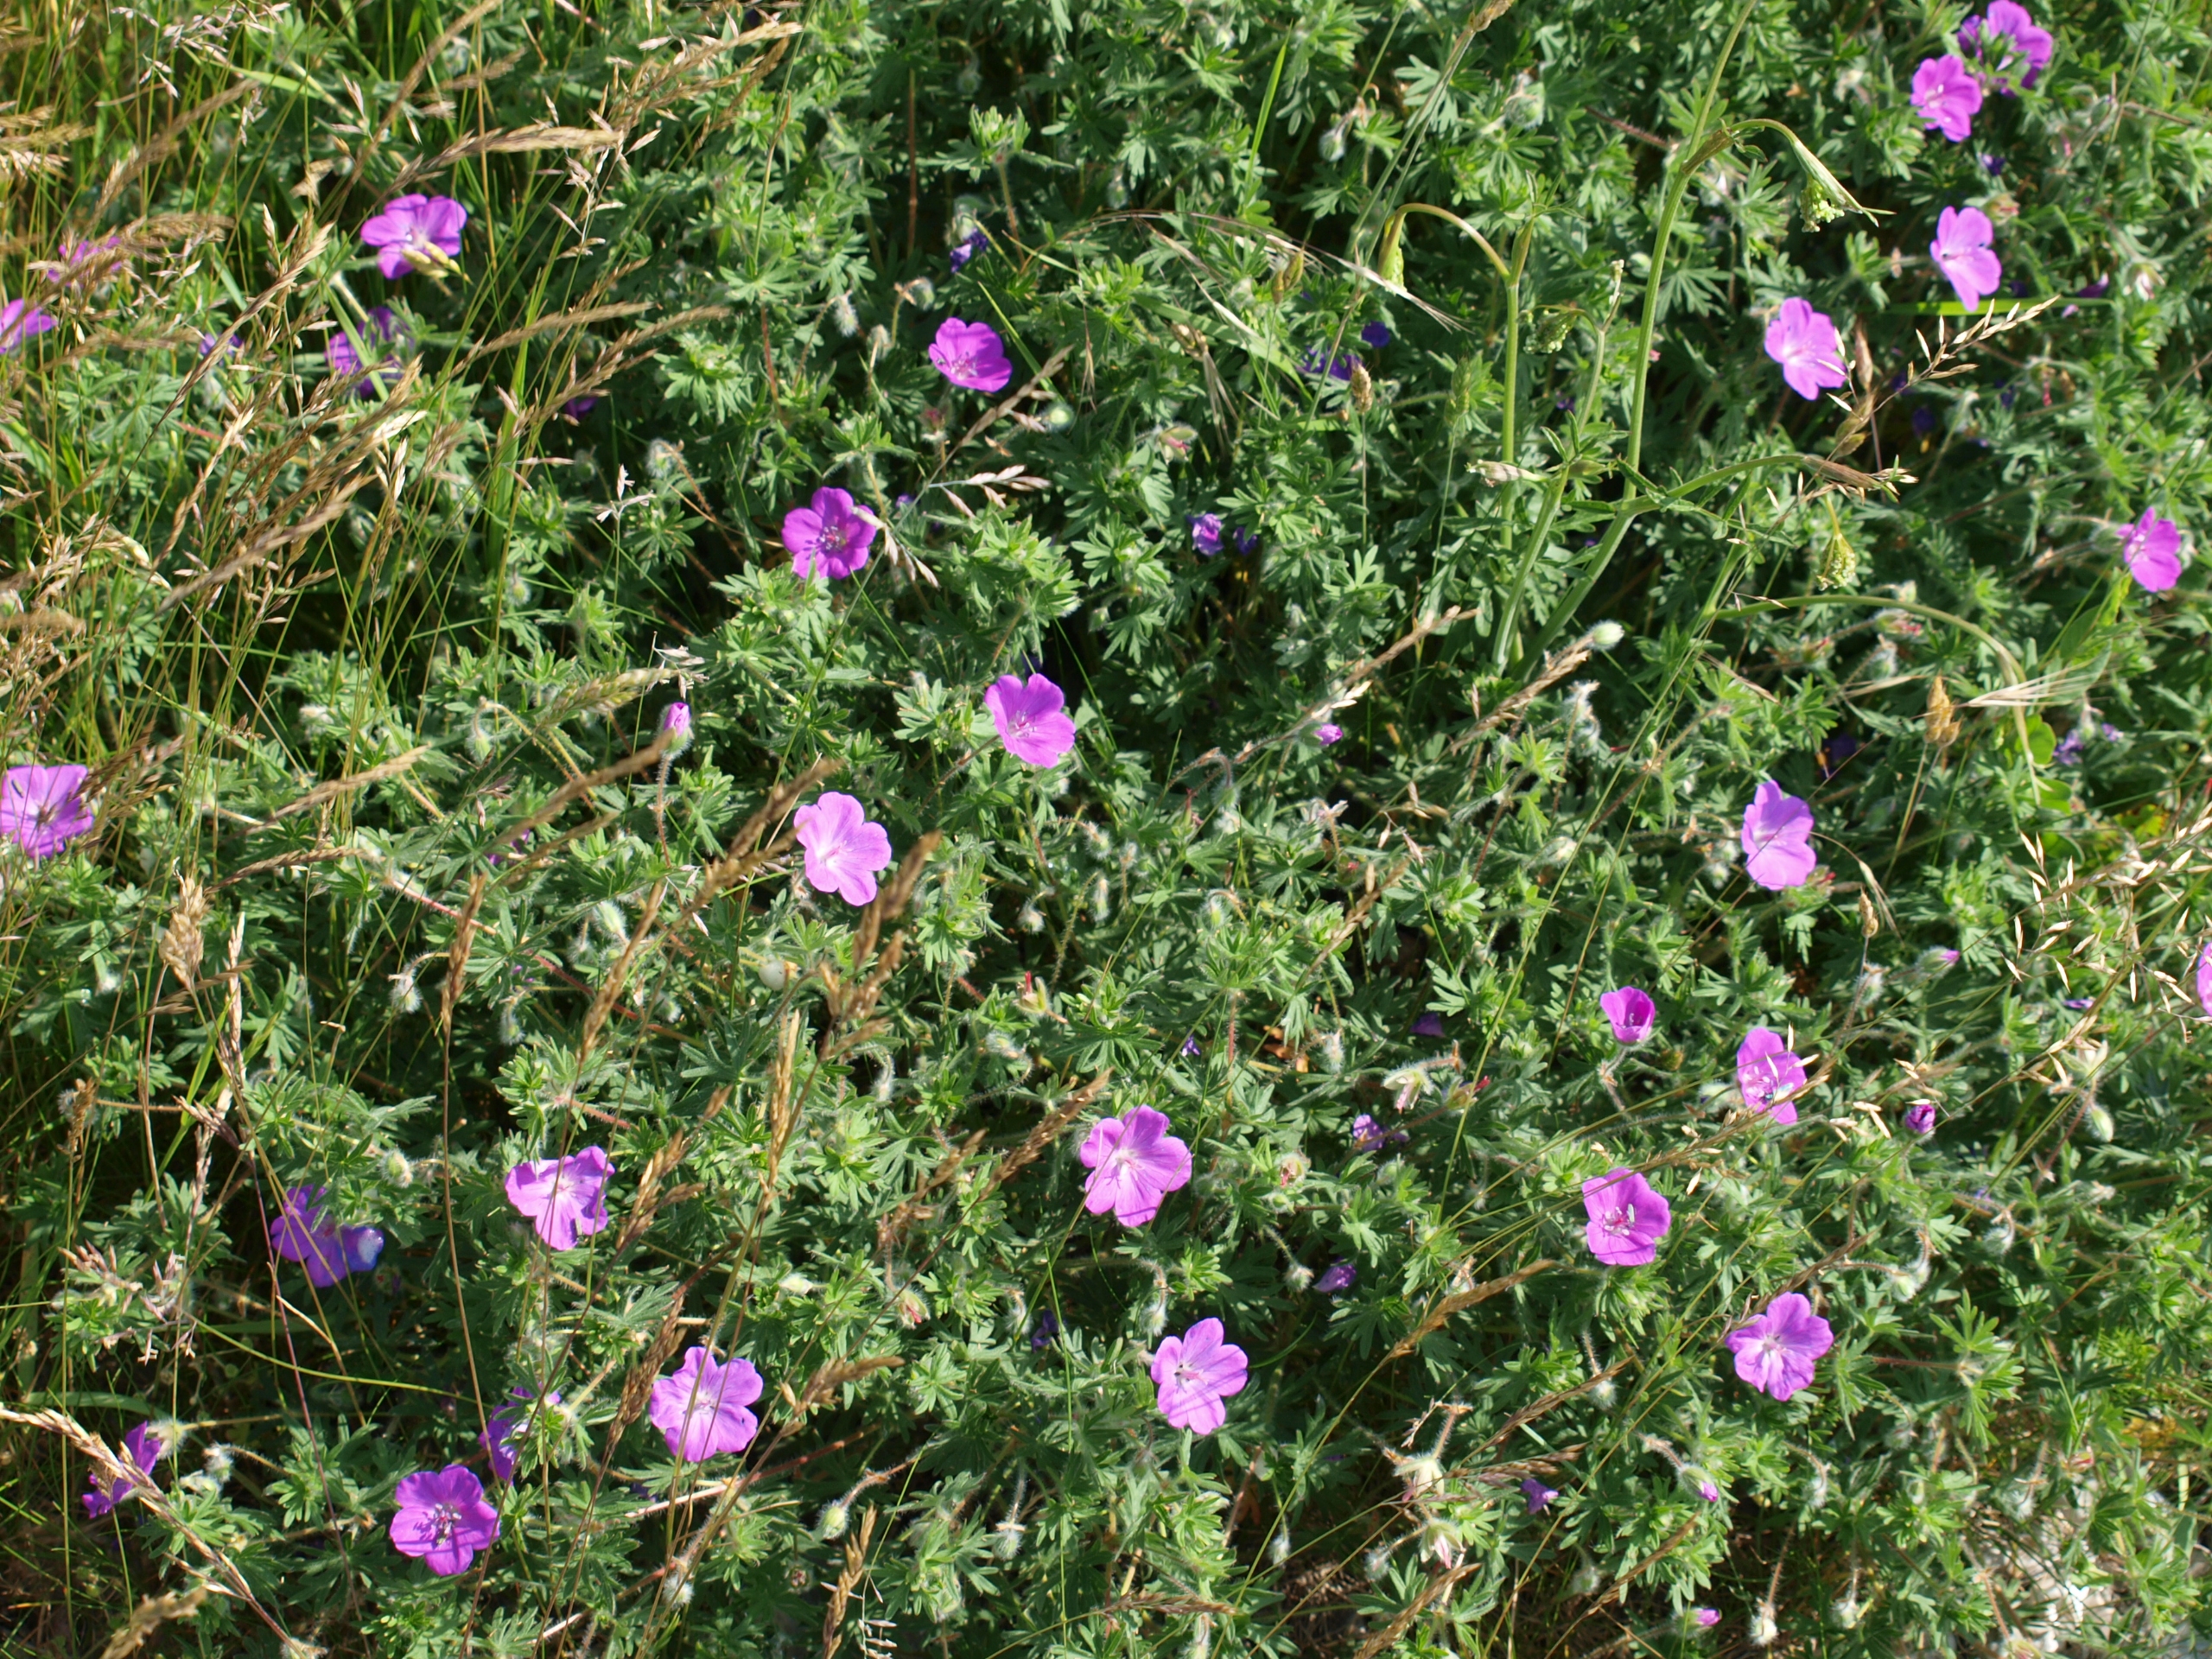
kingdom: Plantae
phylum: Tracheophyta
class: Magnoliopsida
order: Geraniales
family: Geraniaceae
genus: Geranium
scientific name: Geranium sanguineum
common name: Blodrød storkenæb
